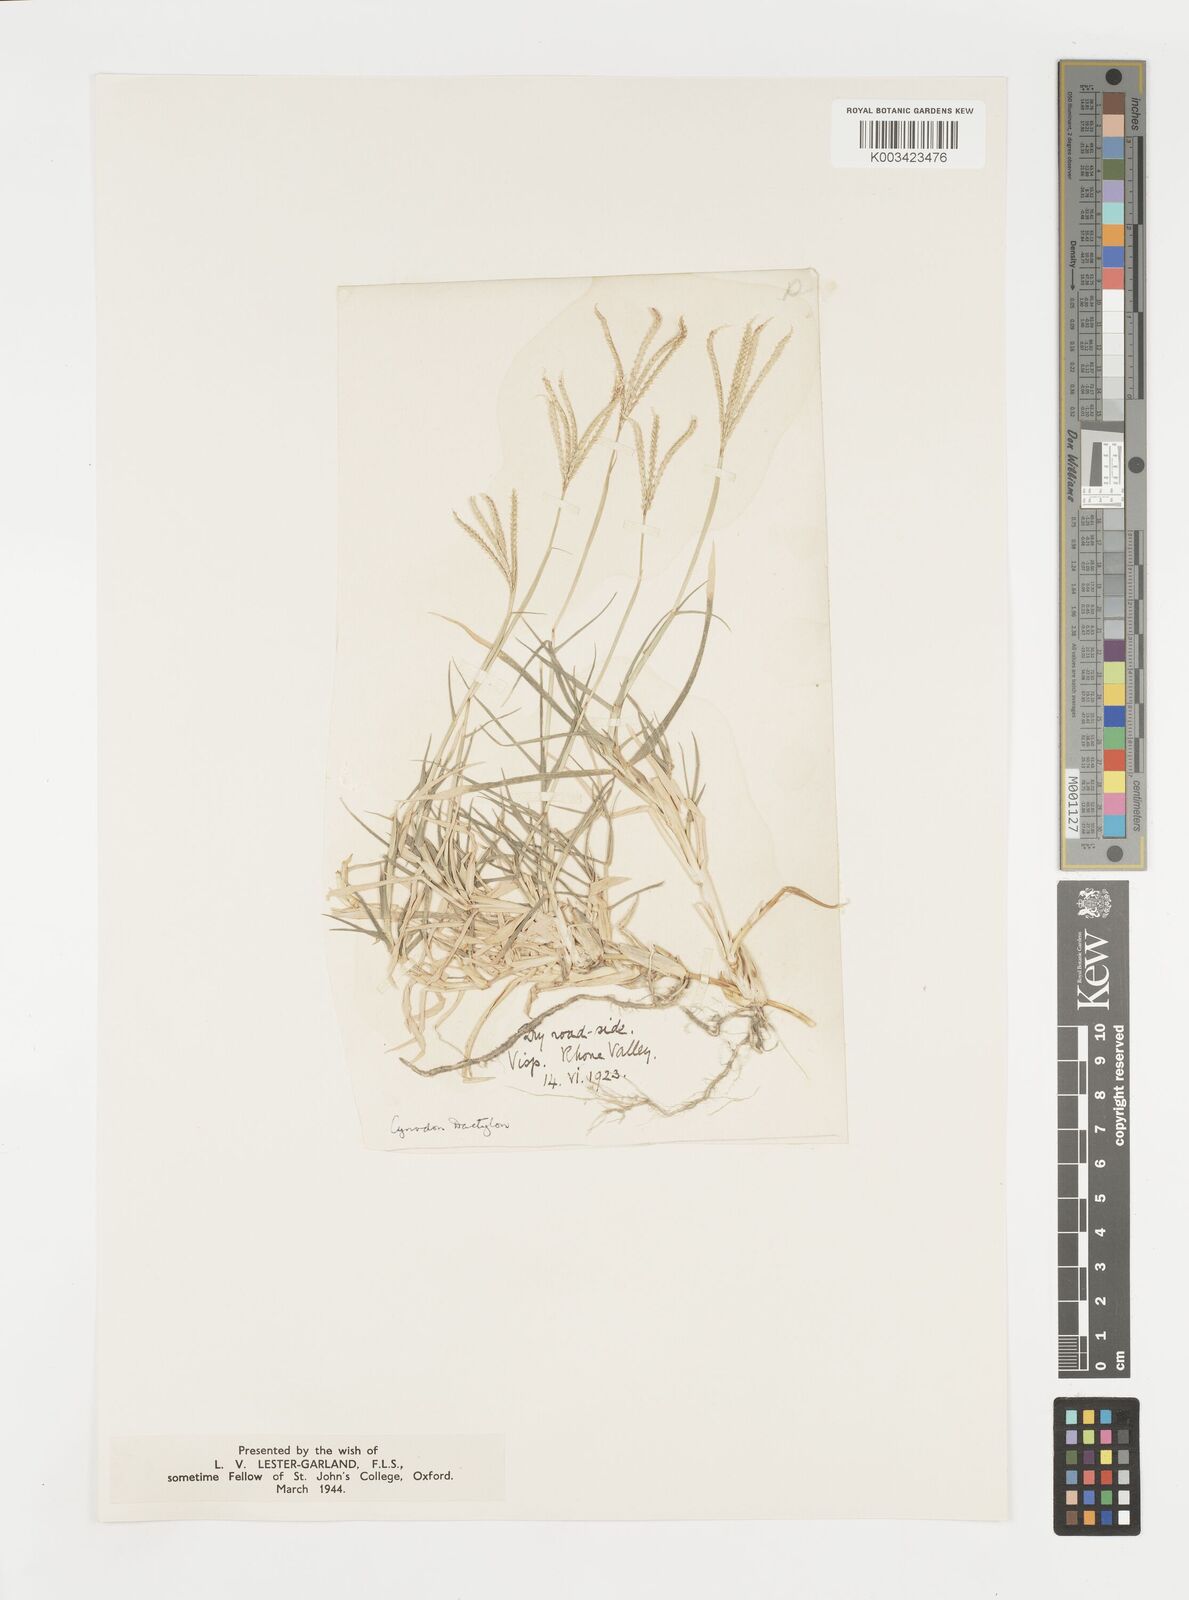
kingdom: Plantae
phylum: Tracheophyta
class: Liliopsida
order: Poales
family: Poaceae
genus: Cynodon
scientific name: Cynodon dactylon
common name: Bermuda grass
